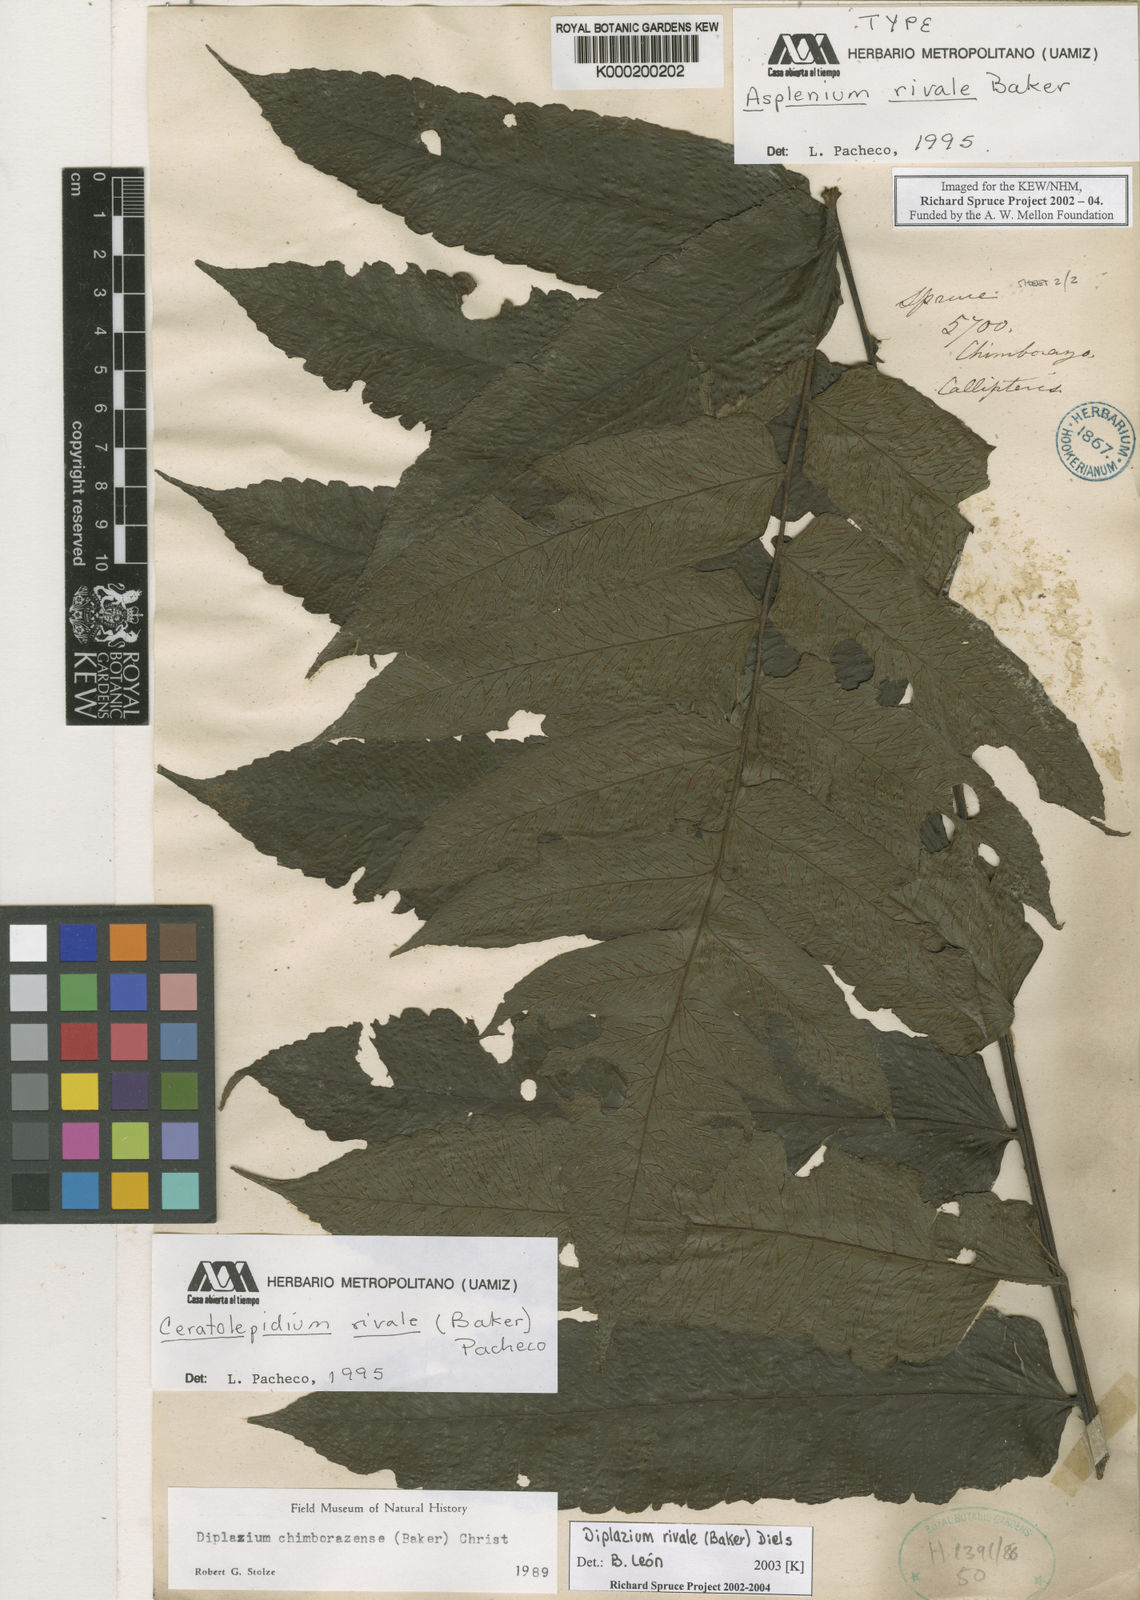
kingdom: Plantae
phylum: Tracheophyta
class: Polypodiopsida
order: Polypodiales
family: Athyriaceae
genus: Diplazium
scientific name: Diplazium rivale
